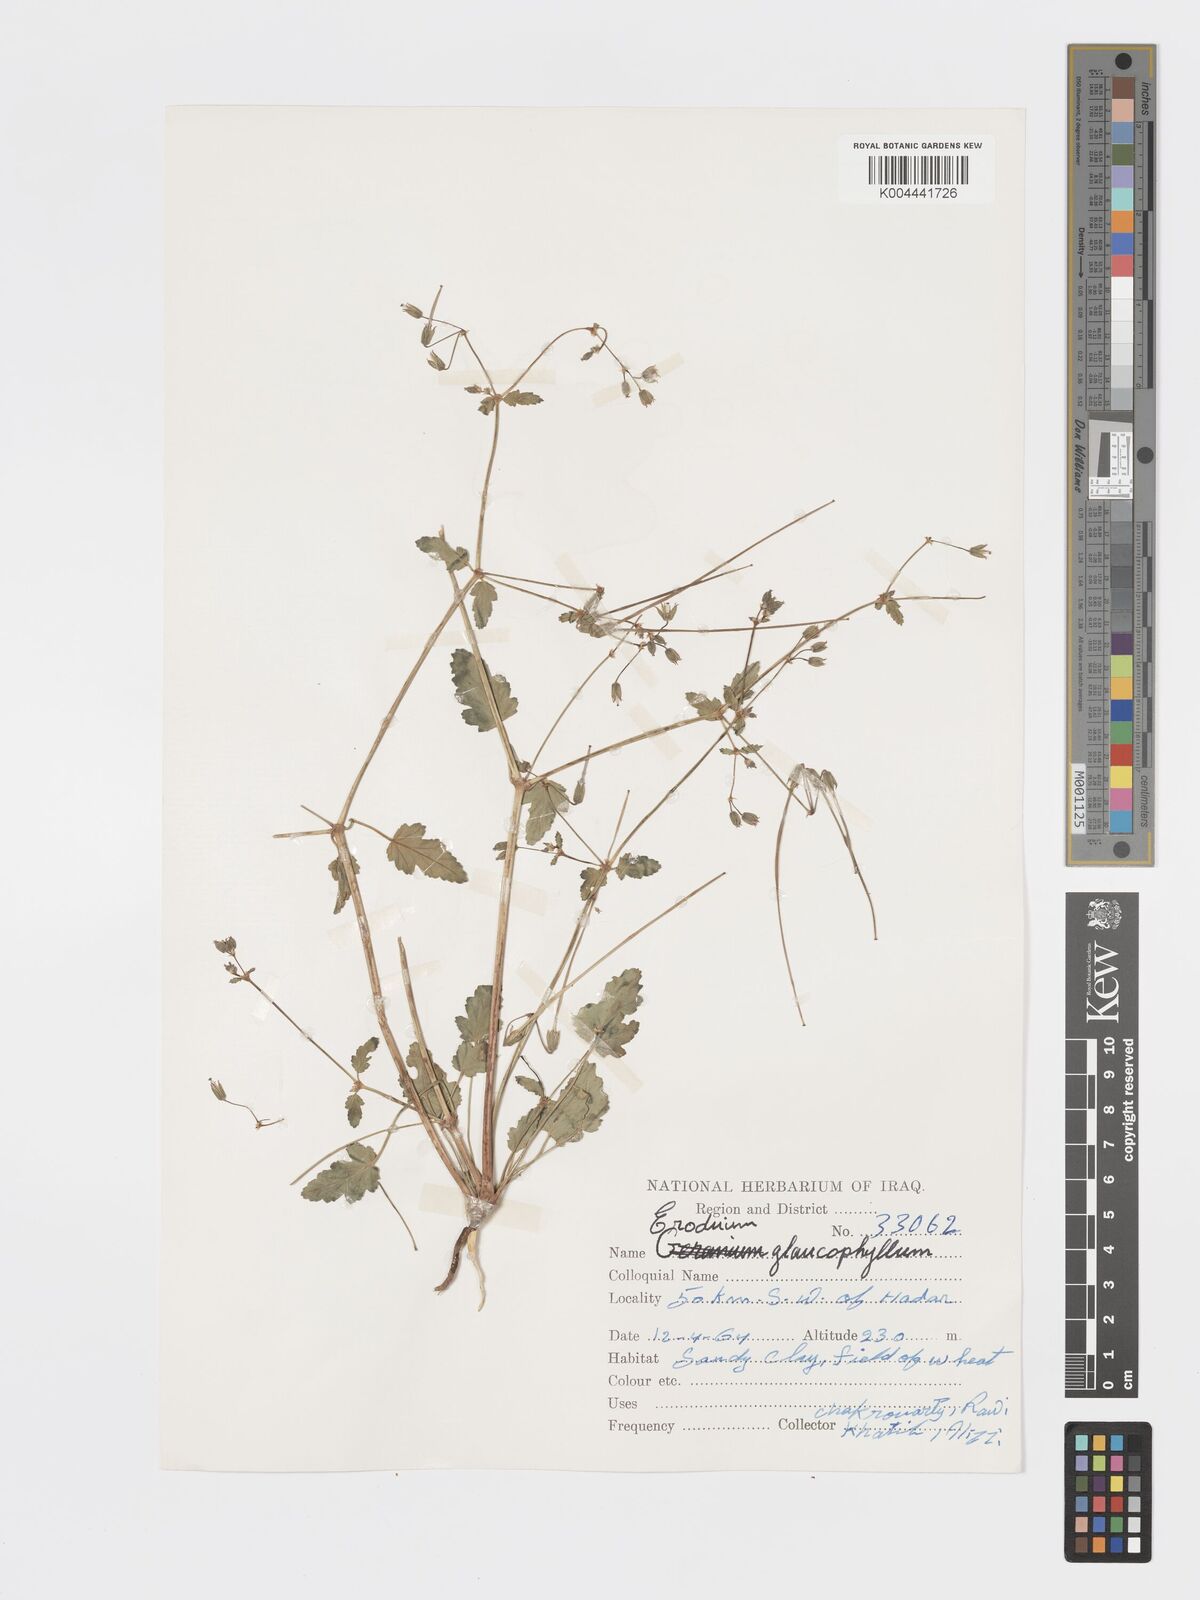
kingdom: Plantae
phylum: Tracheophyta
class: Magnoliopsida
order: Geraniales
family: Geraniaceae
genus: Erodium
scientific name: Erodium glaucophyllum
